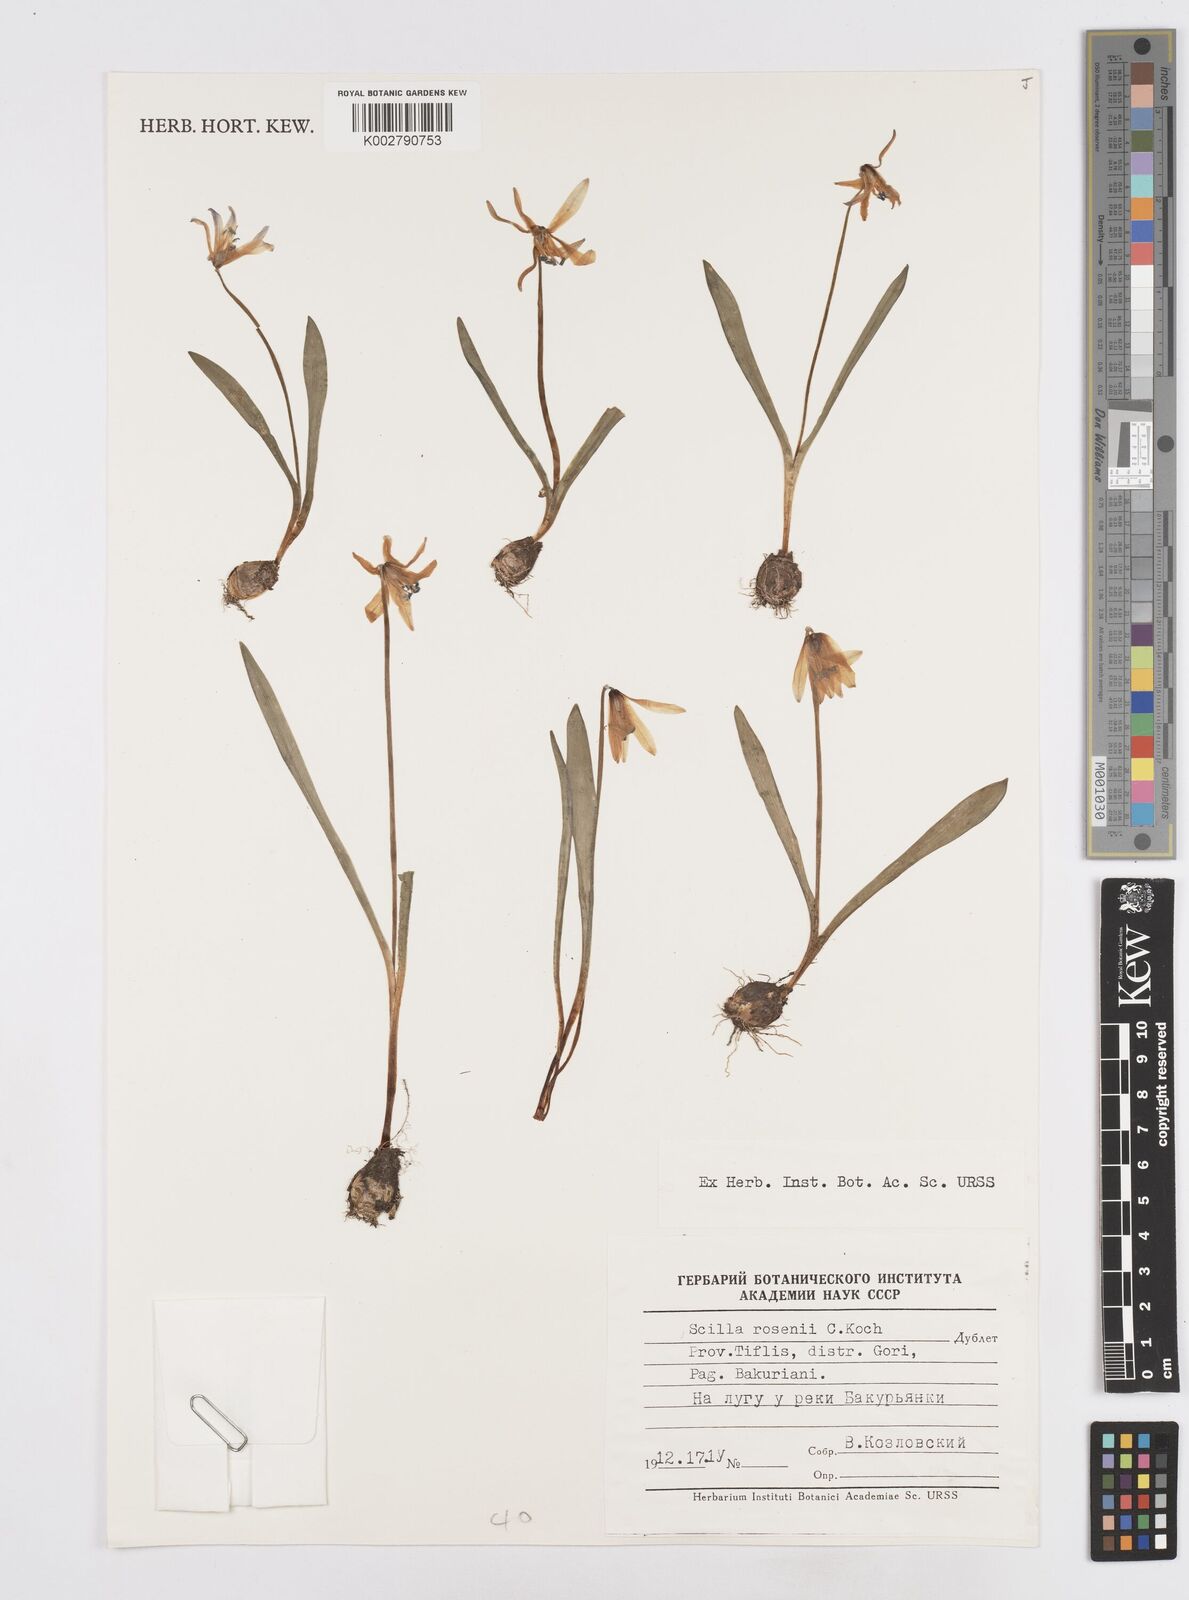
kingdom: Plantae
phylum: Tracheophyta
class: Liliopsida
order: Asparagales
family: Asparagaceae
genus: Scilla
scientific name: Scilla rosenii
